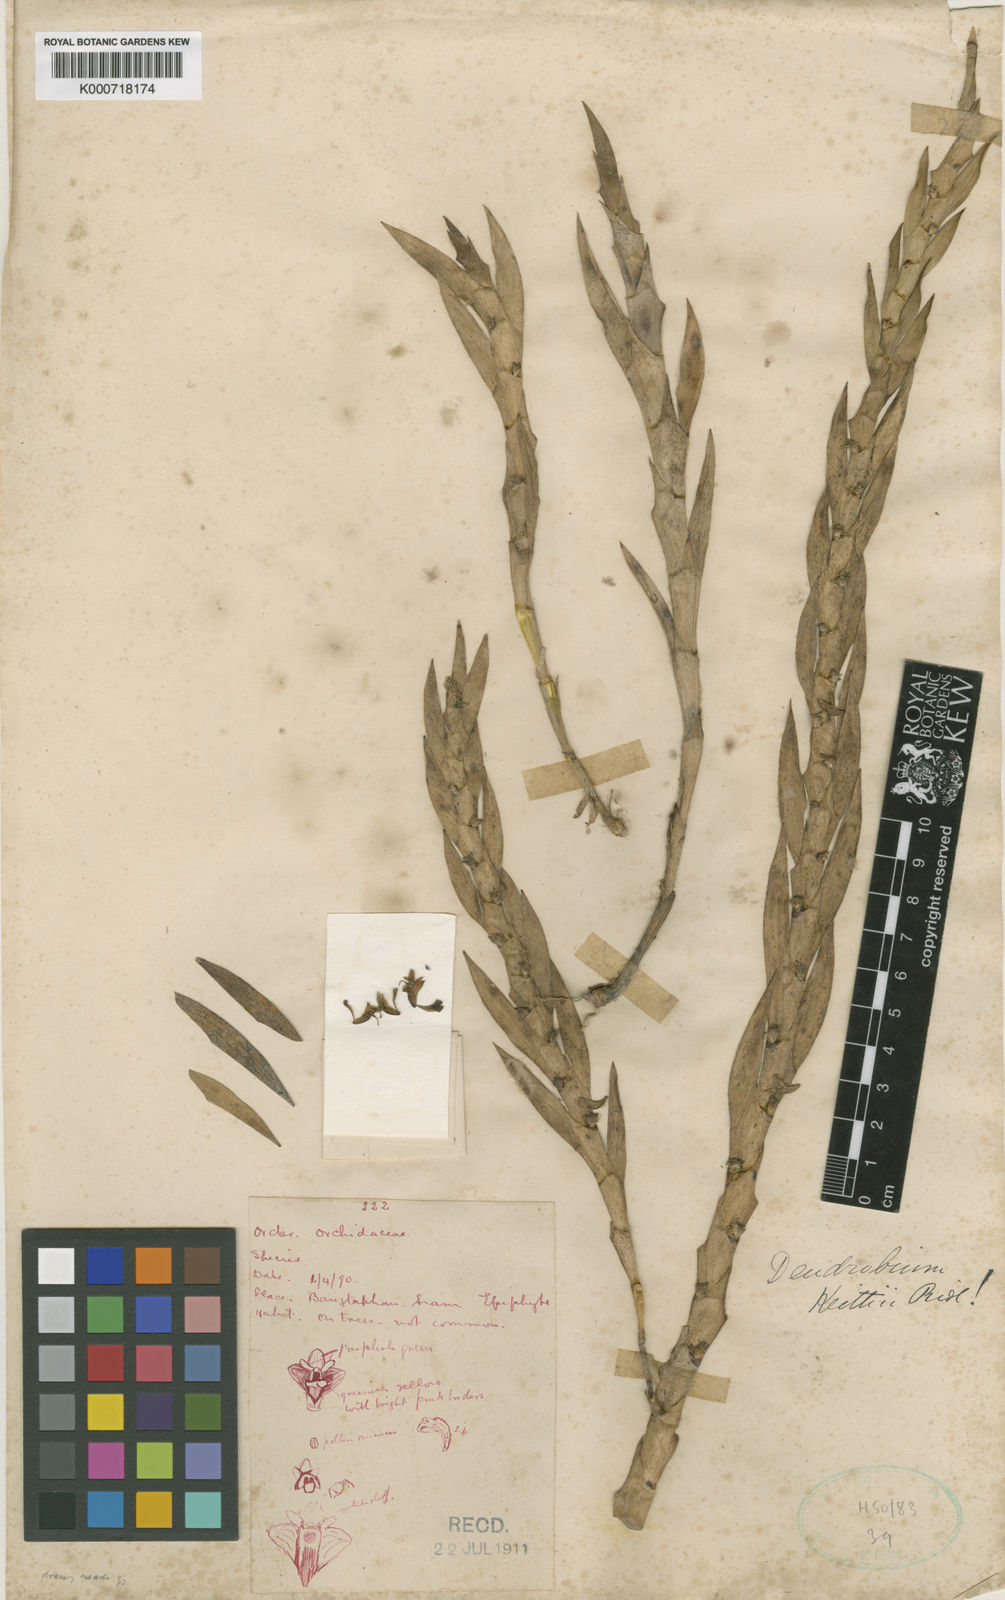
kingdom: Plantae
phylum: Tracheophyta
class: Liliopsida
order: Asparagales
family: Orchidaceae
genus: Dendrobium
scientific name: Dendrobium keithii
